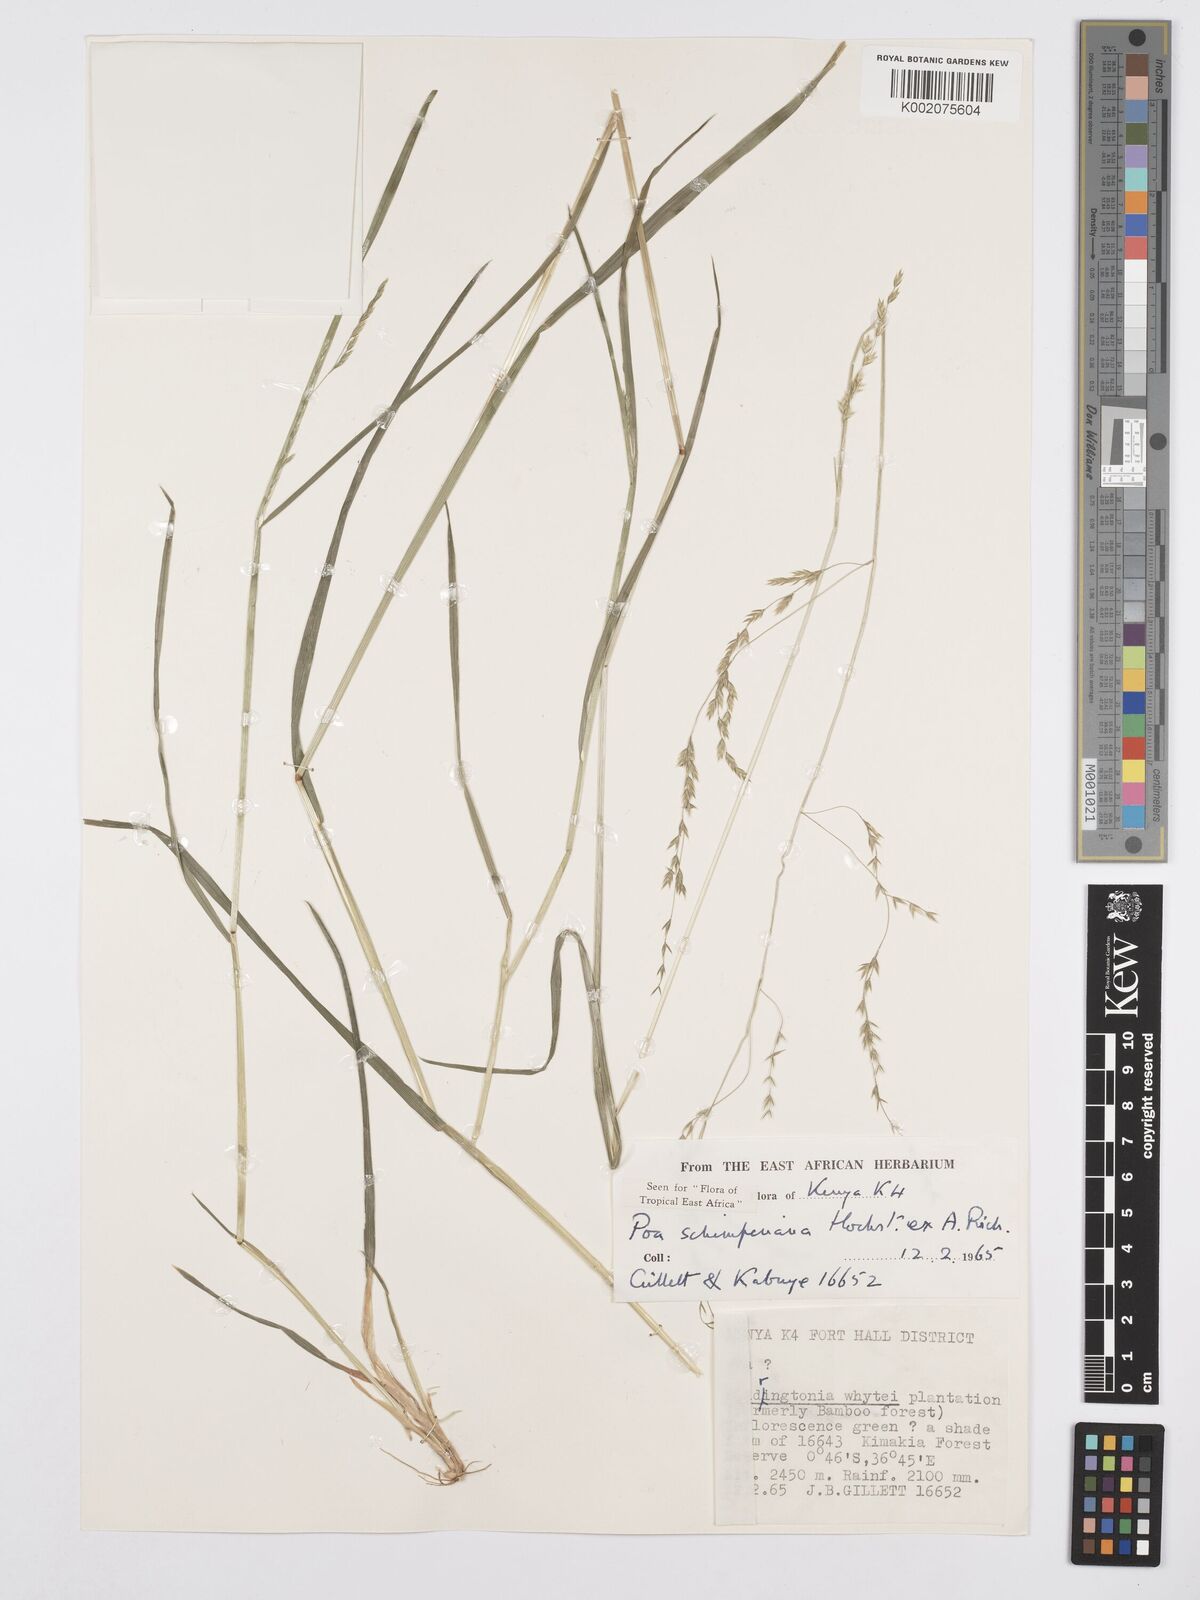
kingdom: Plantae
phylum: Tracheophyta
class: Liliopsida
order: Poales
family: Poaceae
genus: Poa
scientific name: Poa schimperiana
